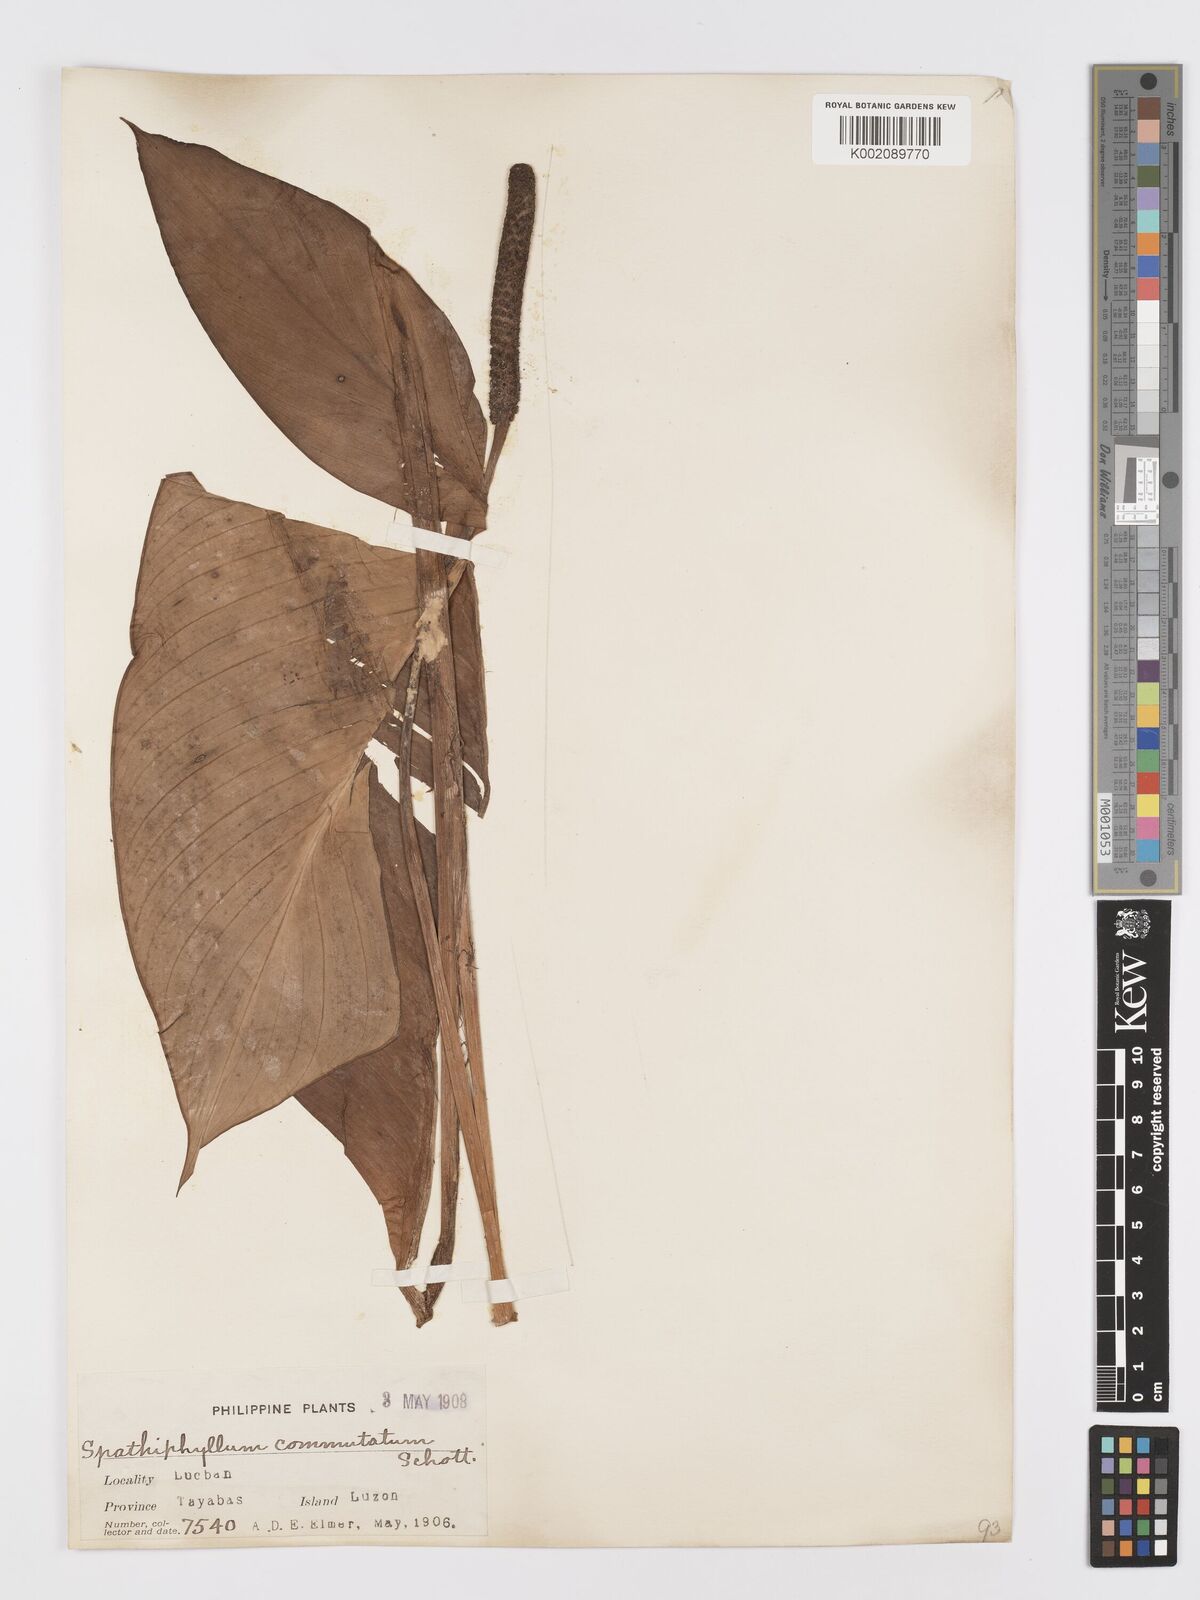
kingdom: Plantae
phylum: Tracheophyta
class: Liliopsida
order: Alismatales
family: Araceae
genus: Spathiphyllum
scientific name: Spathiphyllum commutatum
